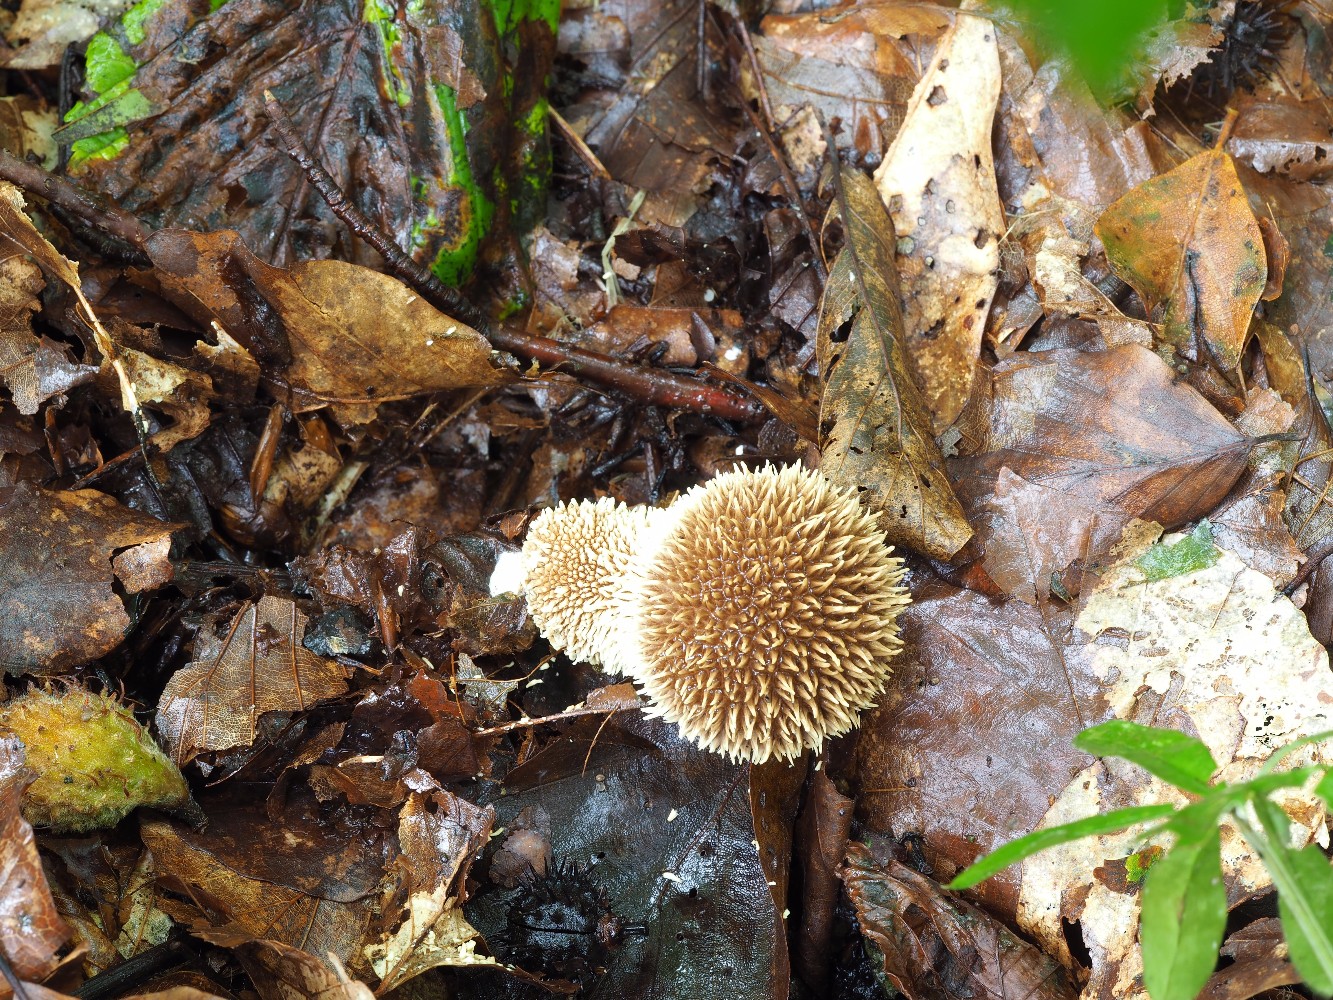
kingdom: Fungi
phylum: Basidiomycota
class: Agaricomycetes
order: Agaricales
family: Lycoperdaceae
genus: Lycoperdon
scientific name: Lycoperdon echinatum
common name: pindsvine-støvbold
